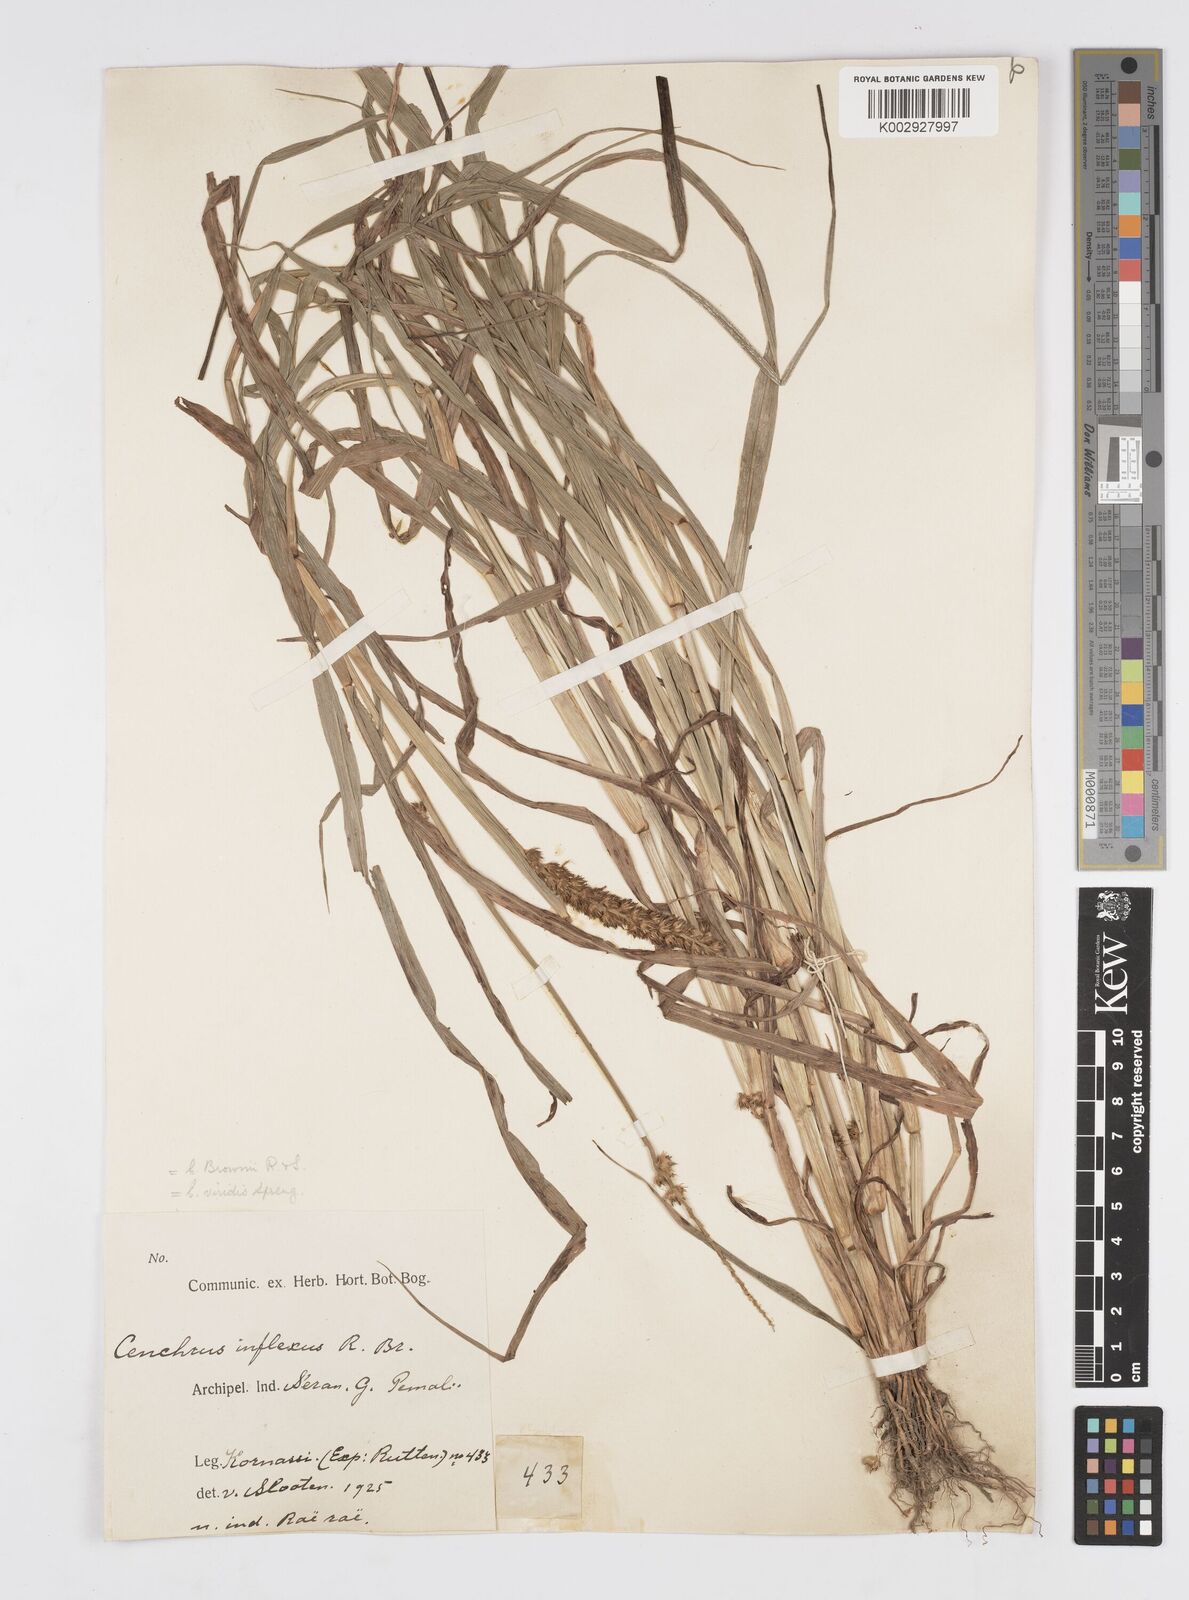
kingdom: Plantae
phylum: Tracheophyta
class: Liliopsida
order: Poales
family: Poaceae
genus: Cenchrus
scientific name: Cenchrus brownii
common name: Slim-bristle sandbur
